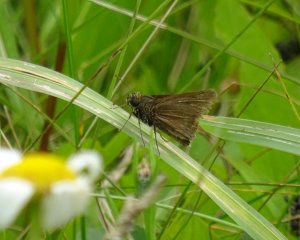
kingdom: Animalia
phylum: Arthropoda
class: Insecta
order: Lepidoptera
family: Hesperiidae
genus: Euphyes
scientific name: Euphyes vestris
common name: Dun Skipper
